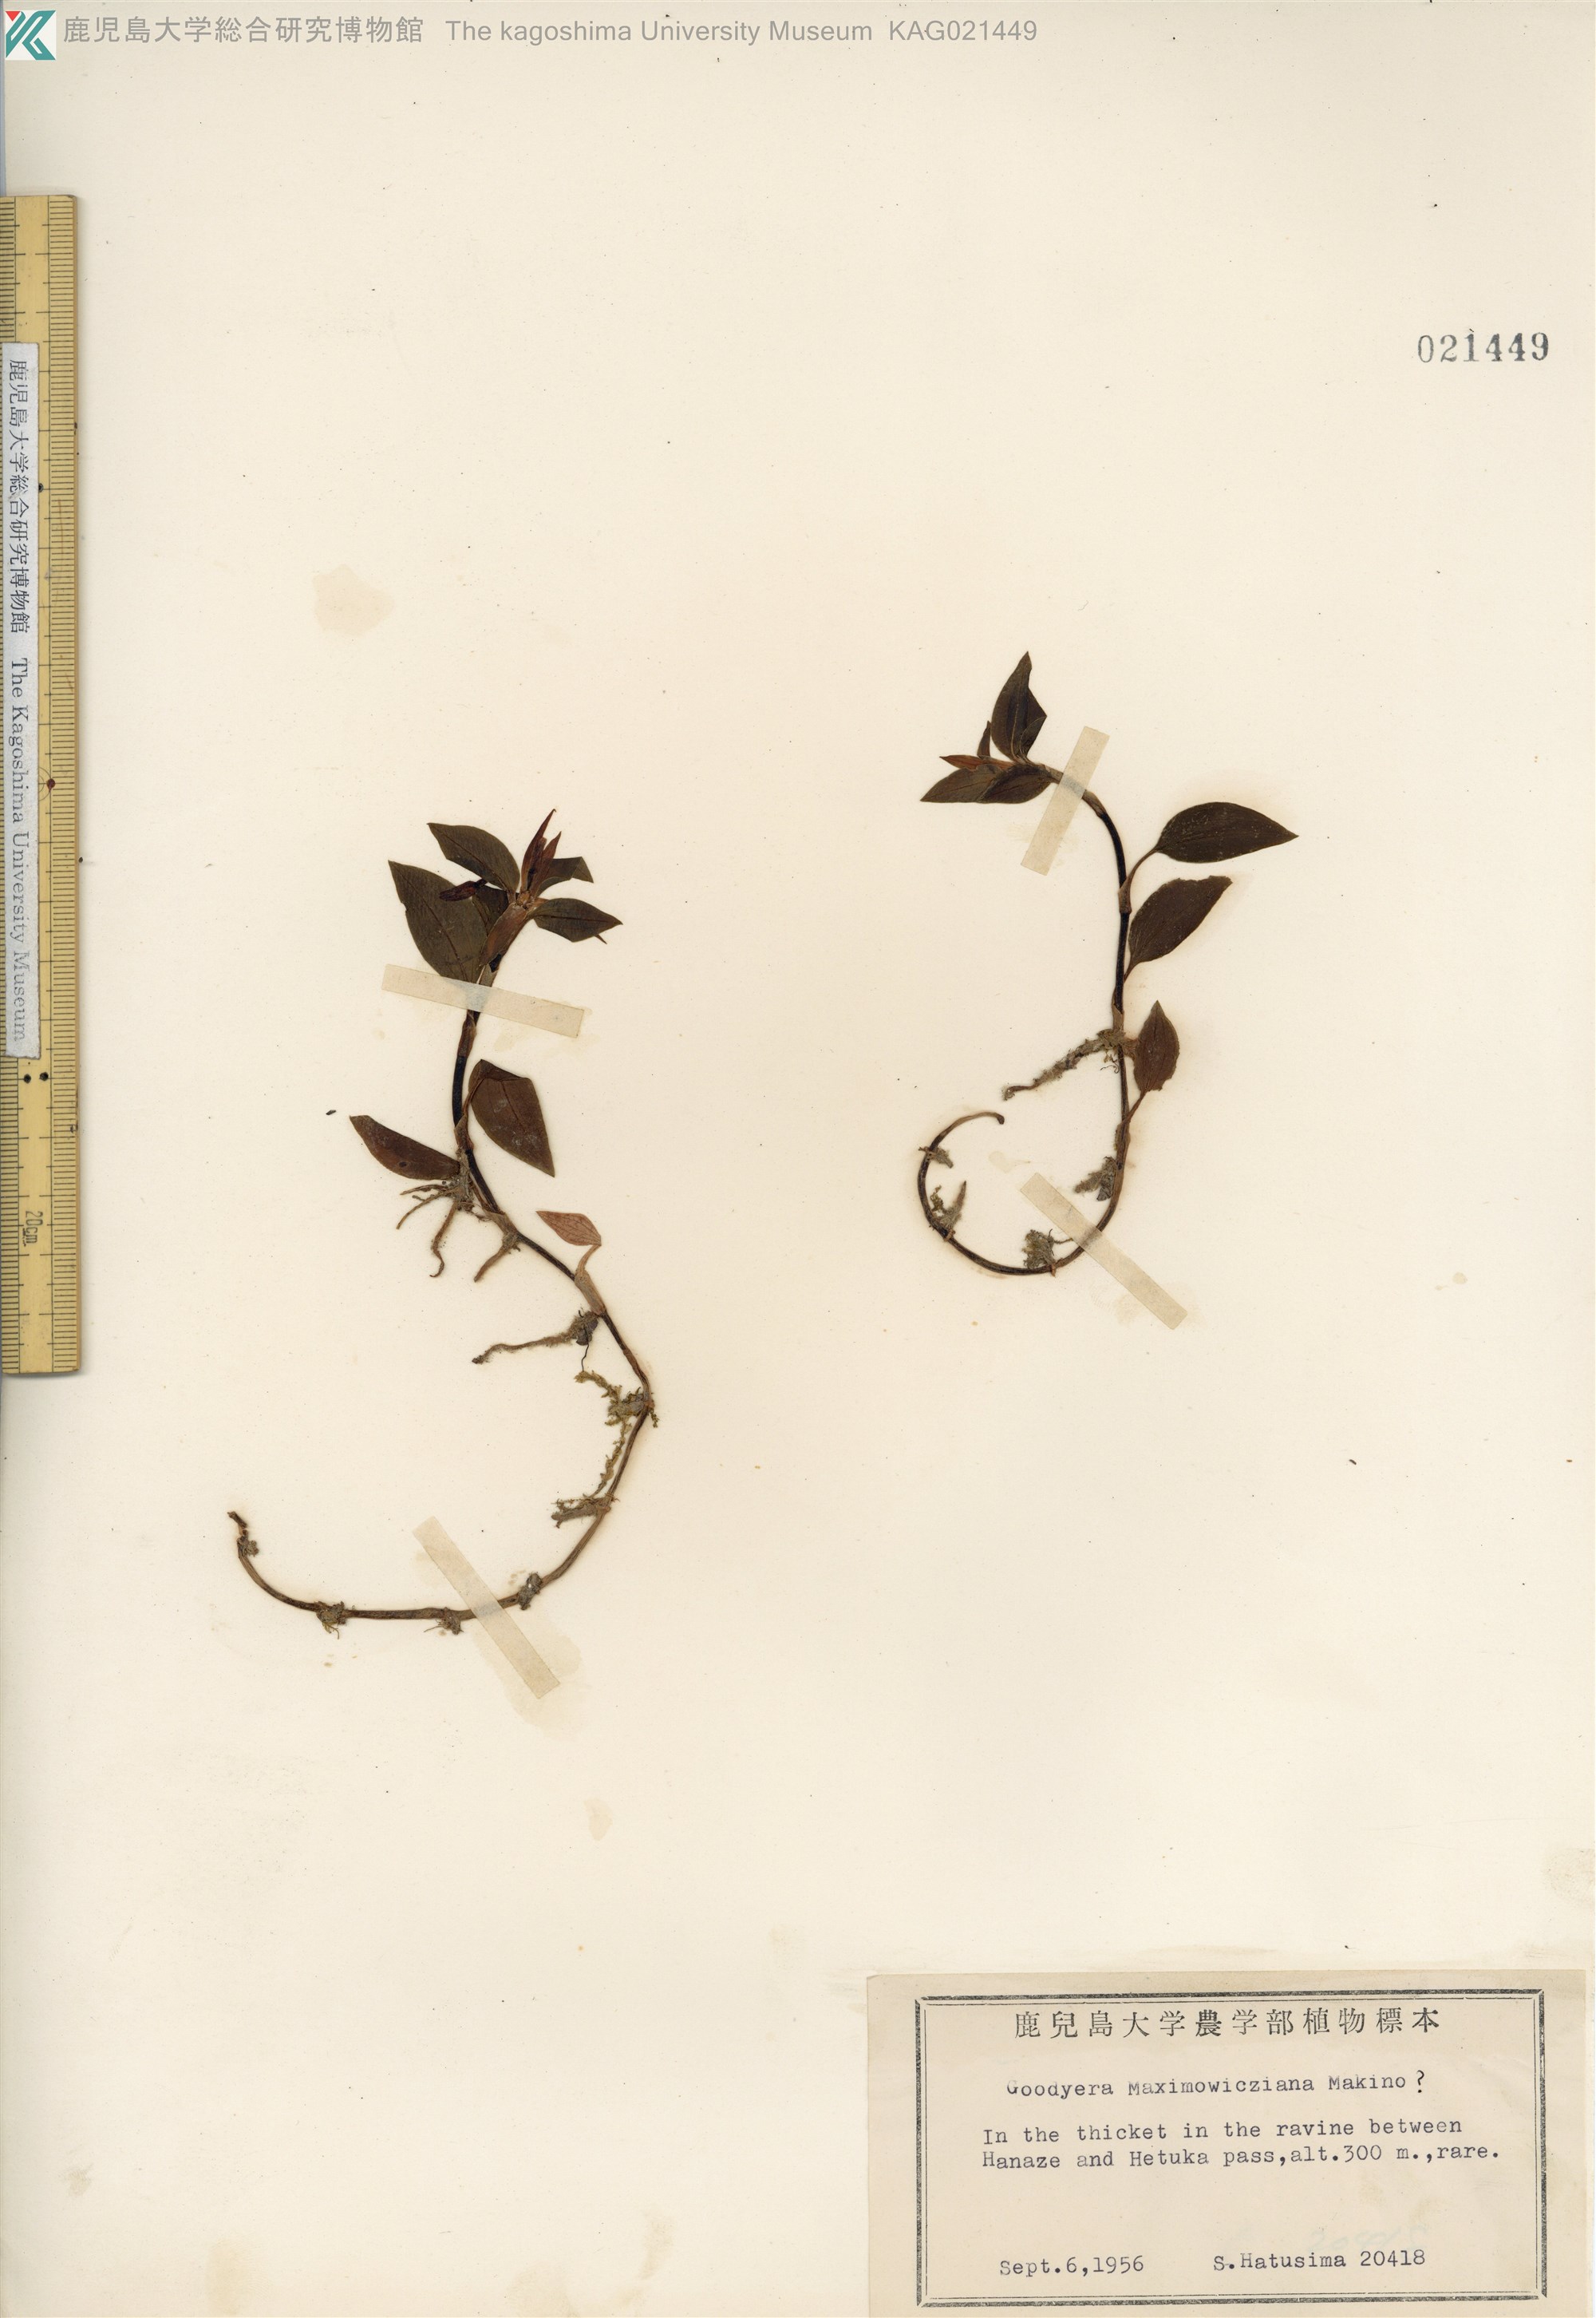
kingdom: Plantae
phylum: Tracheophyta
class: Liliopsida
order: Asparagales
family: Orchidaceae
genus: Goodyera
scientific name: Goodyera henryi
